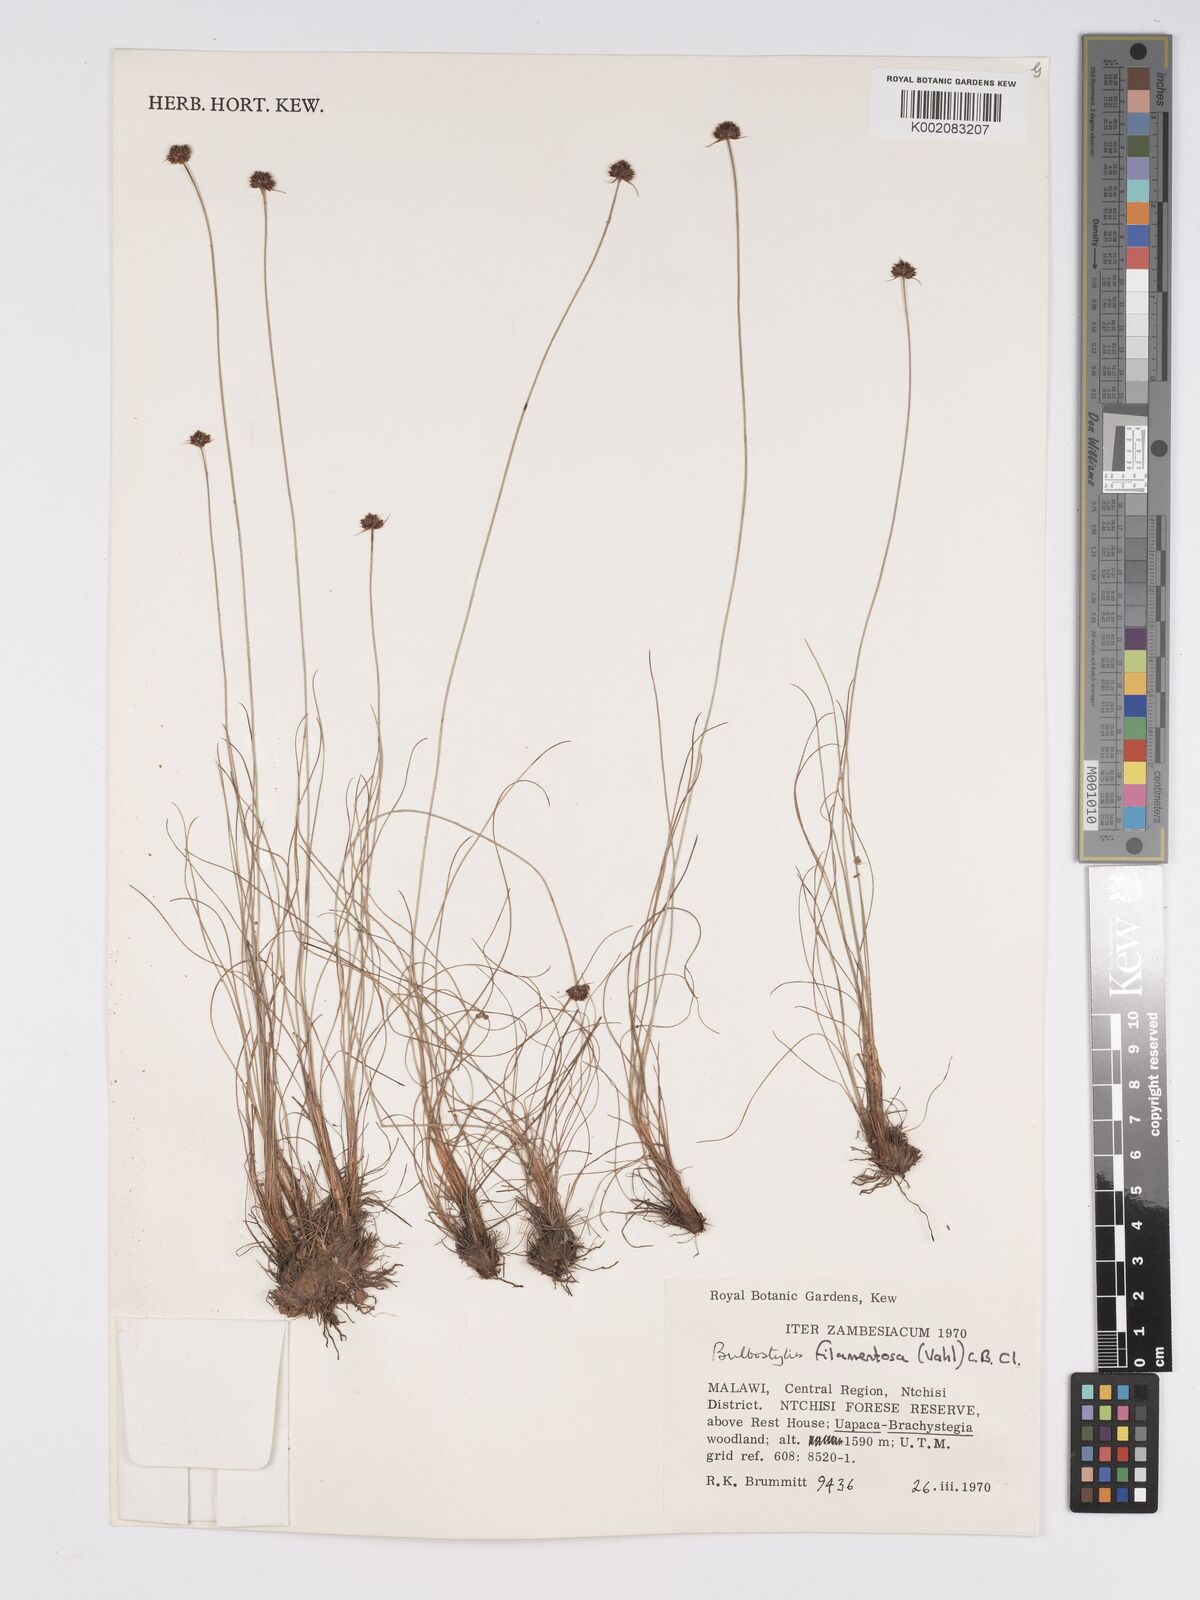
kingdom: Plantae
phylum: Tracheophyta
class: Liliopsida
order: Poales
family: Cyperaceae
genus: Bulbostylis
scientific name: Bulbostylis filamentosa
